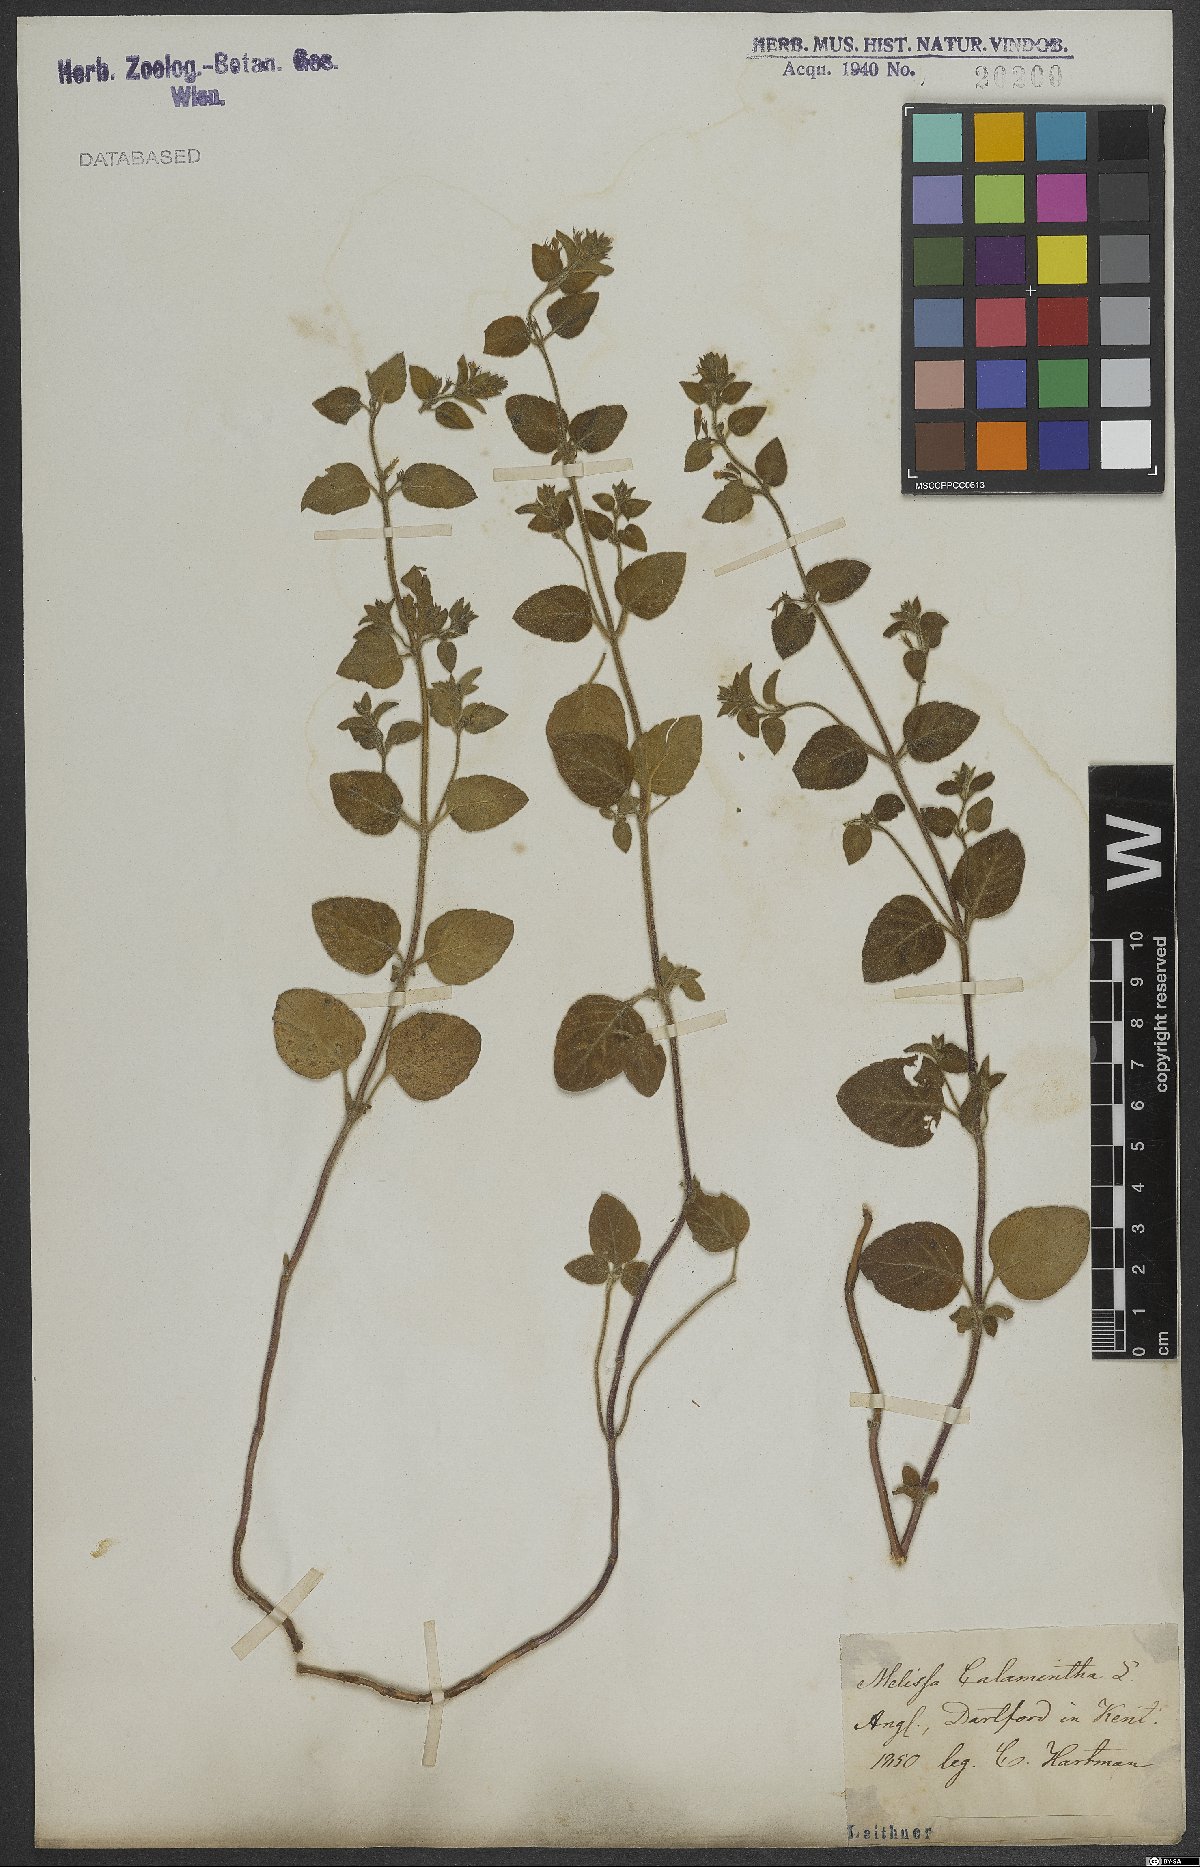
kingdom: Plantae
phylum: Tracheophyta
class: Magnoliopsida
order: Lamiales
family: Lamiaceae
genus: Clinopodium
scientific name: Clinopodium nepeta
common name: Lesser calamint
